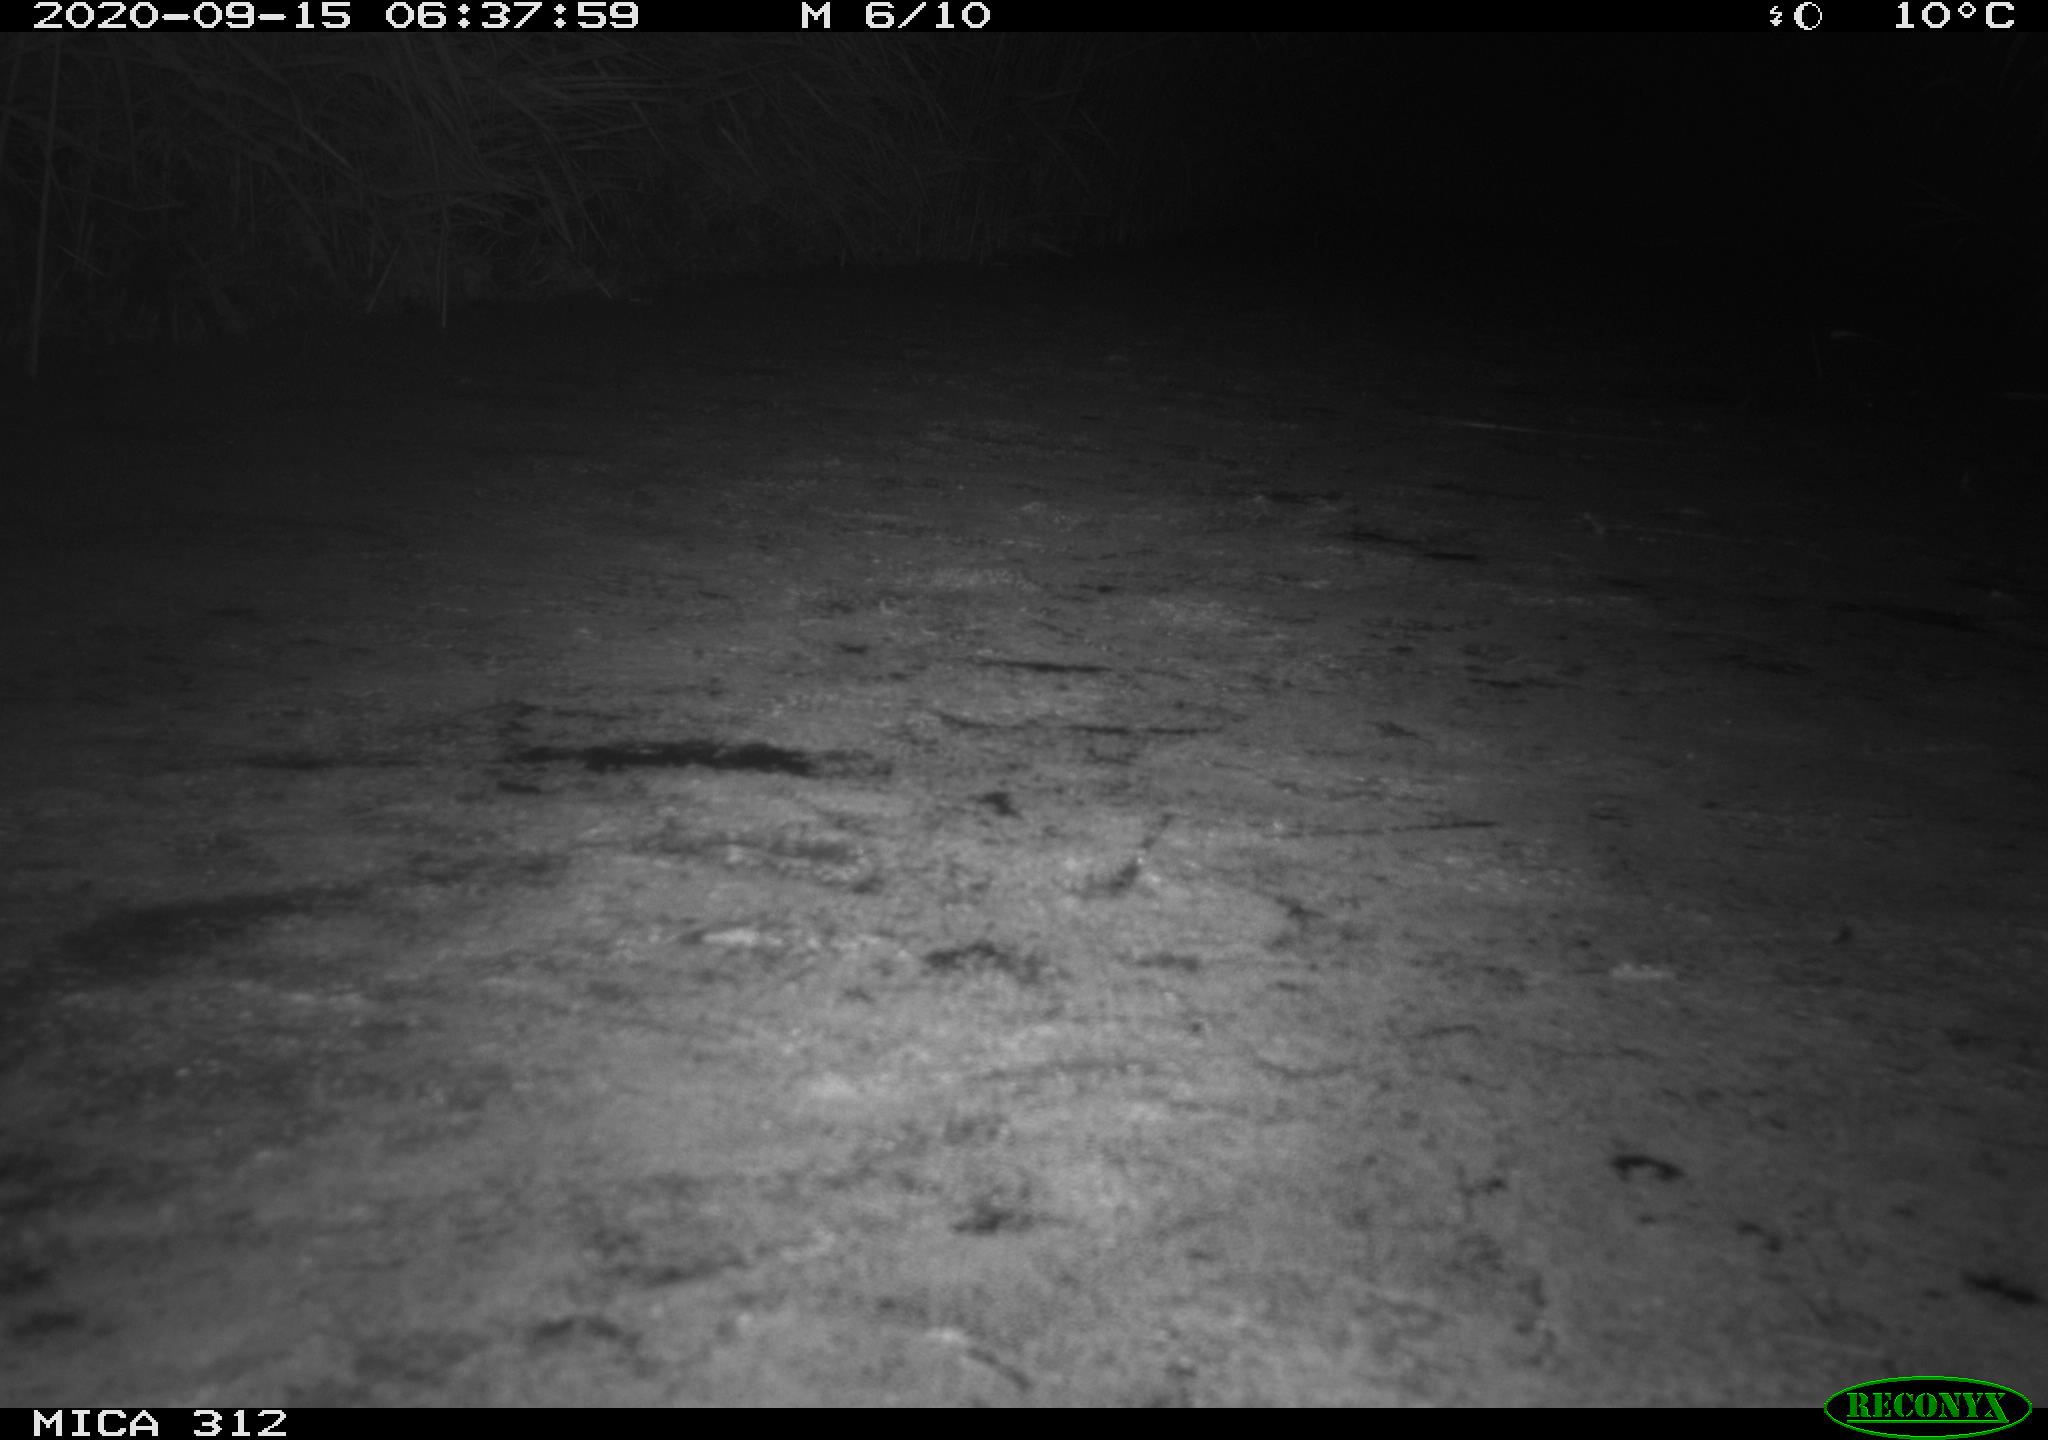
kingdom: Animalia
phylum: Chordata
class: Mammalia
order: Rodentia
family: Muridae
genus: Rattus
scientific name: Rattus norvegicus
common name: Brown rat
